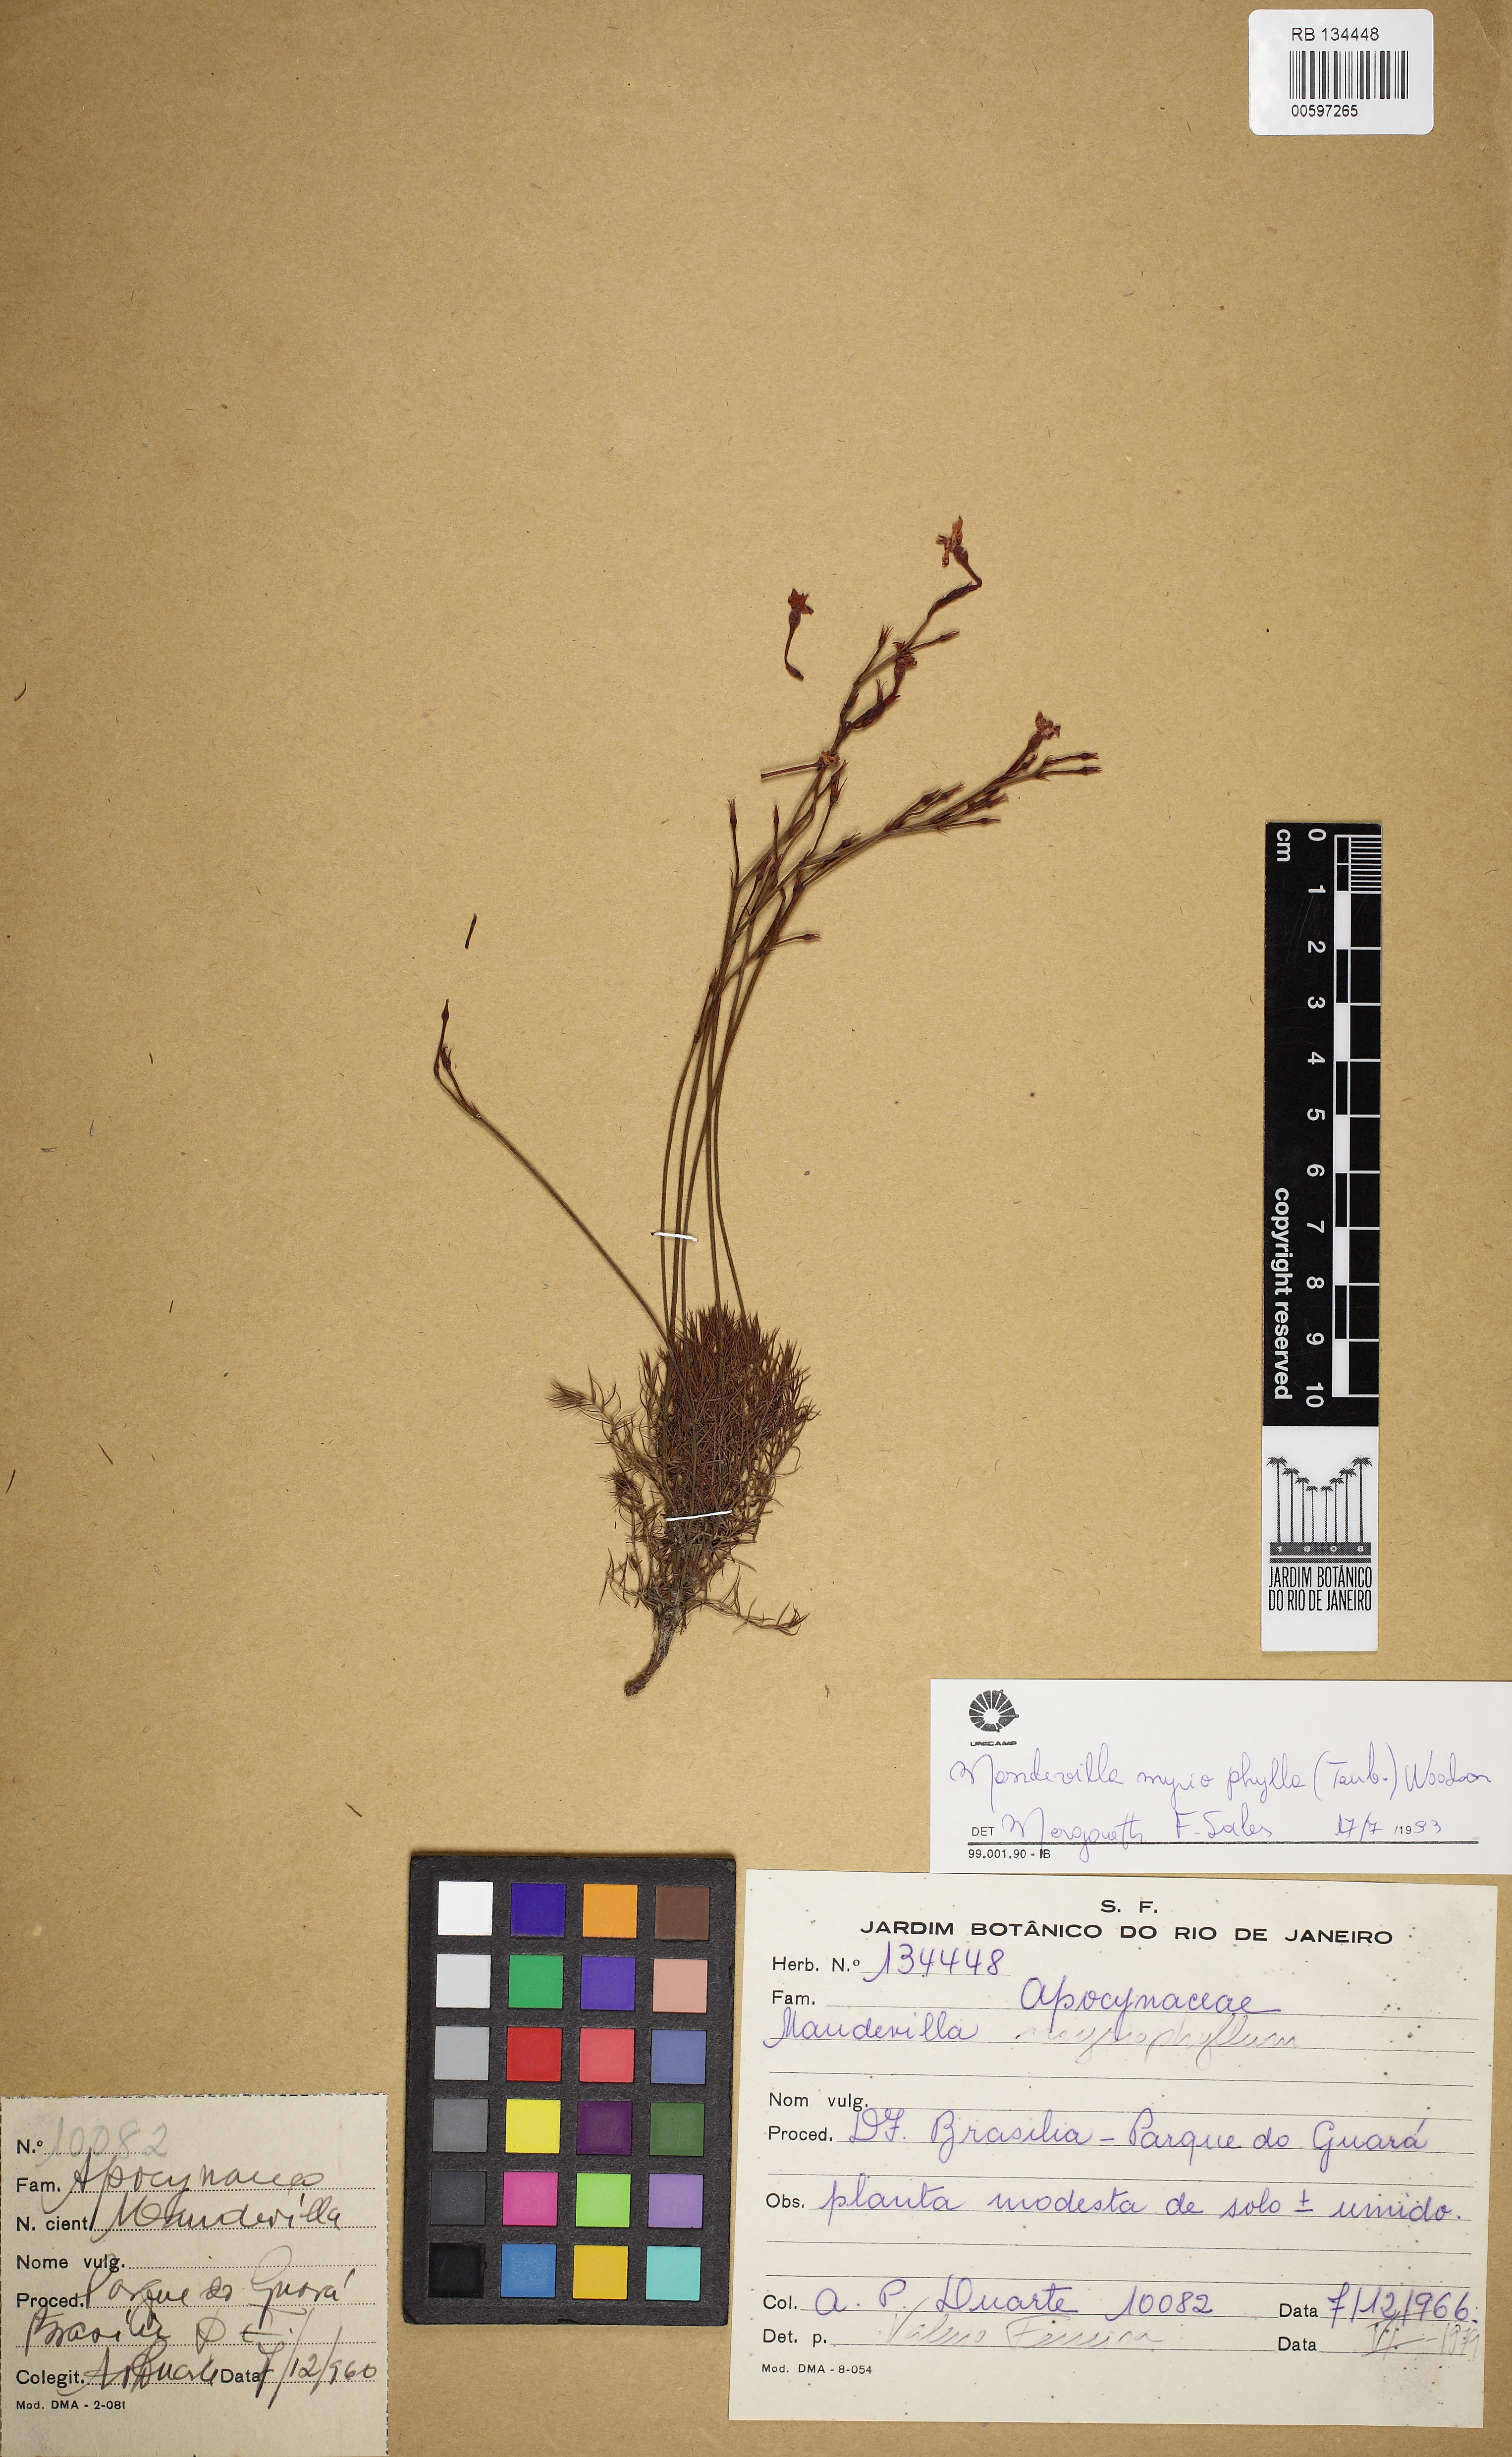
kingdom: Plantae
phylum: Tracheophyta
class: Magnoliopsida
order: Gentianales
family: Apocynaceae
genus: Mandevilla
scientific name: Mandevilla myriophyllum
